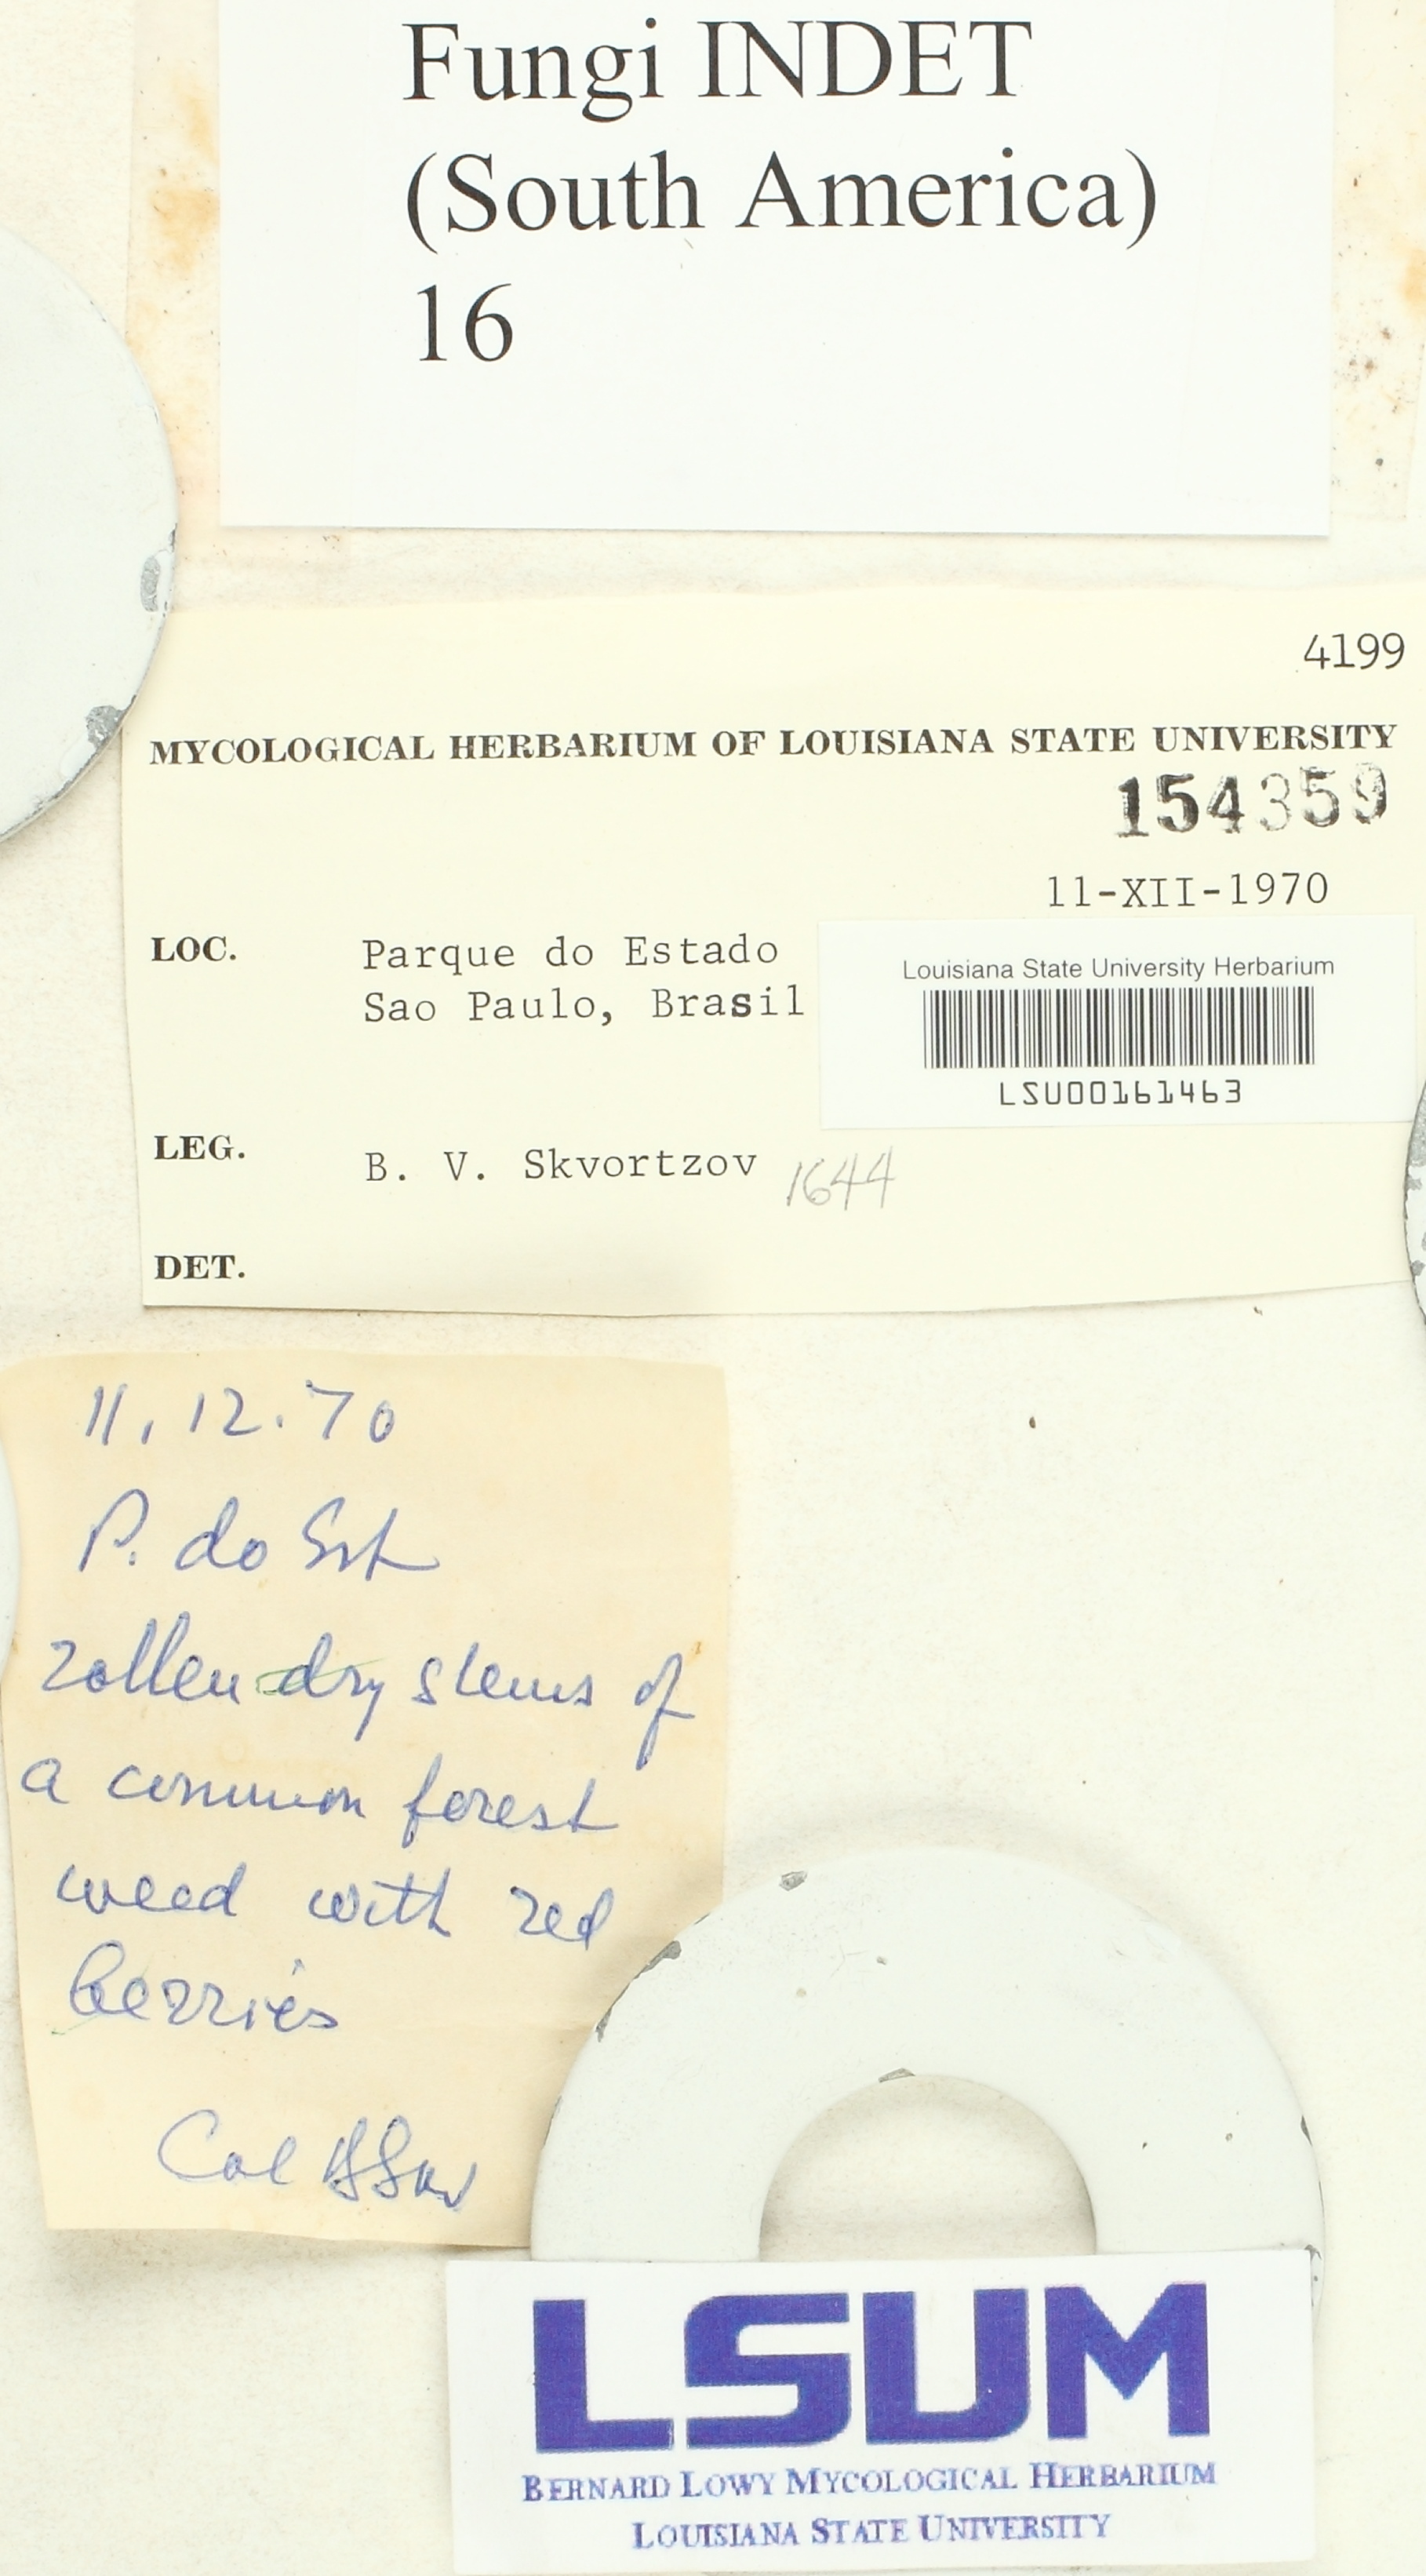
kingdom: Fungi
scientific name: Fungi
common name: Fungi
